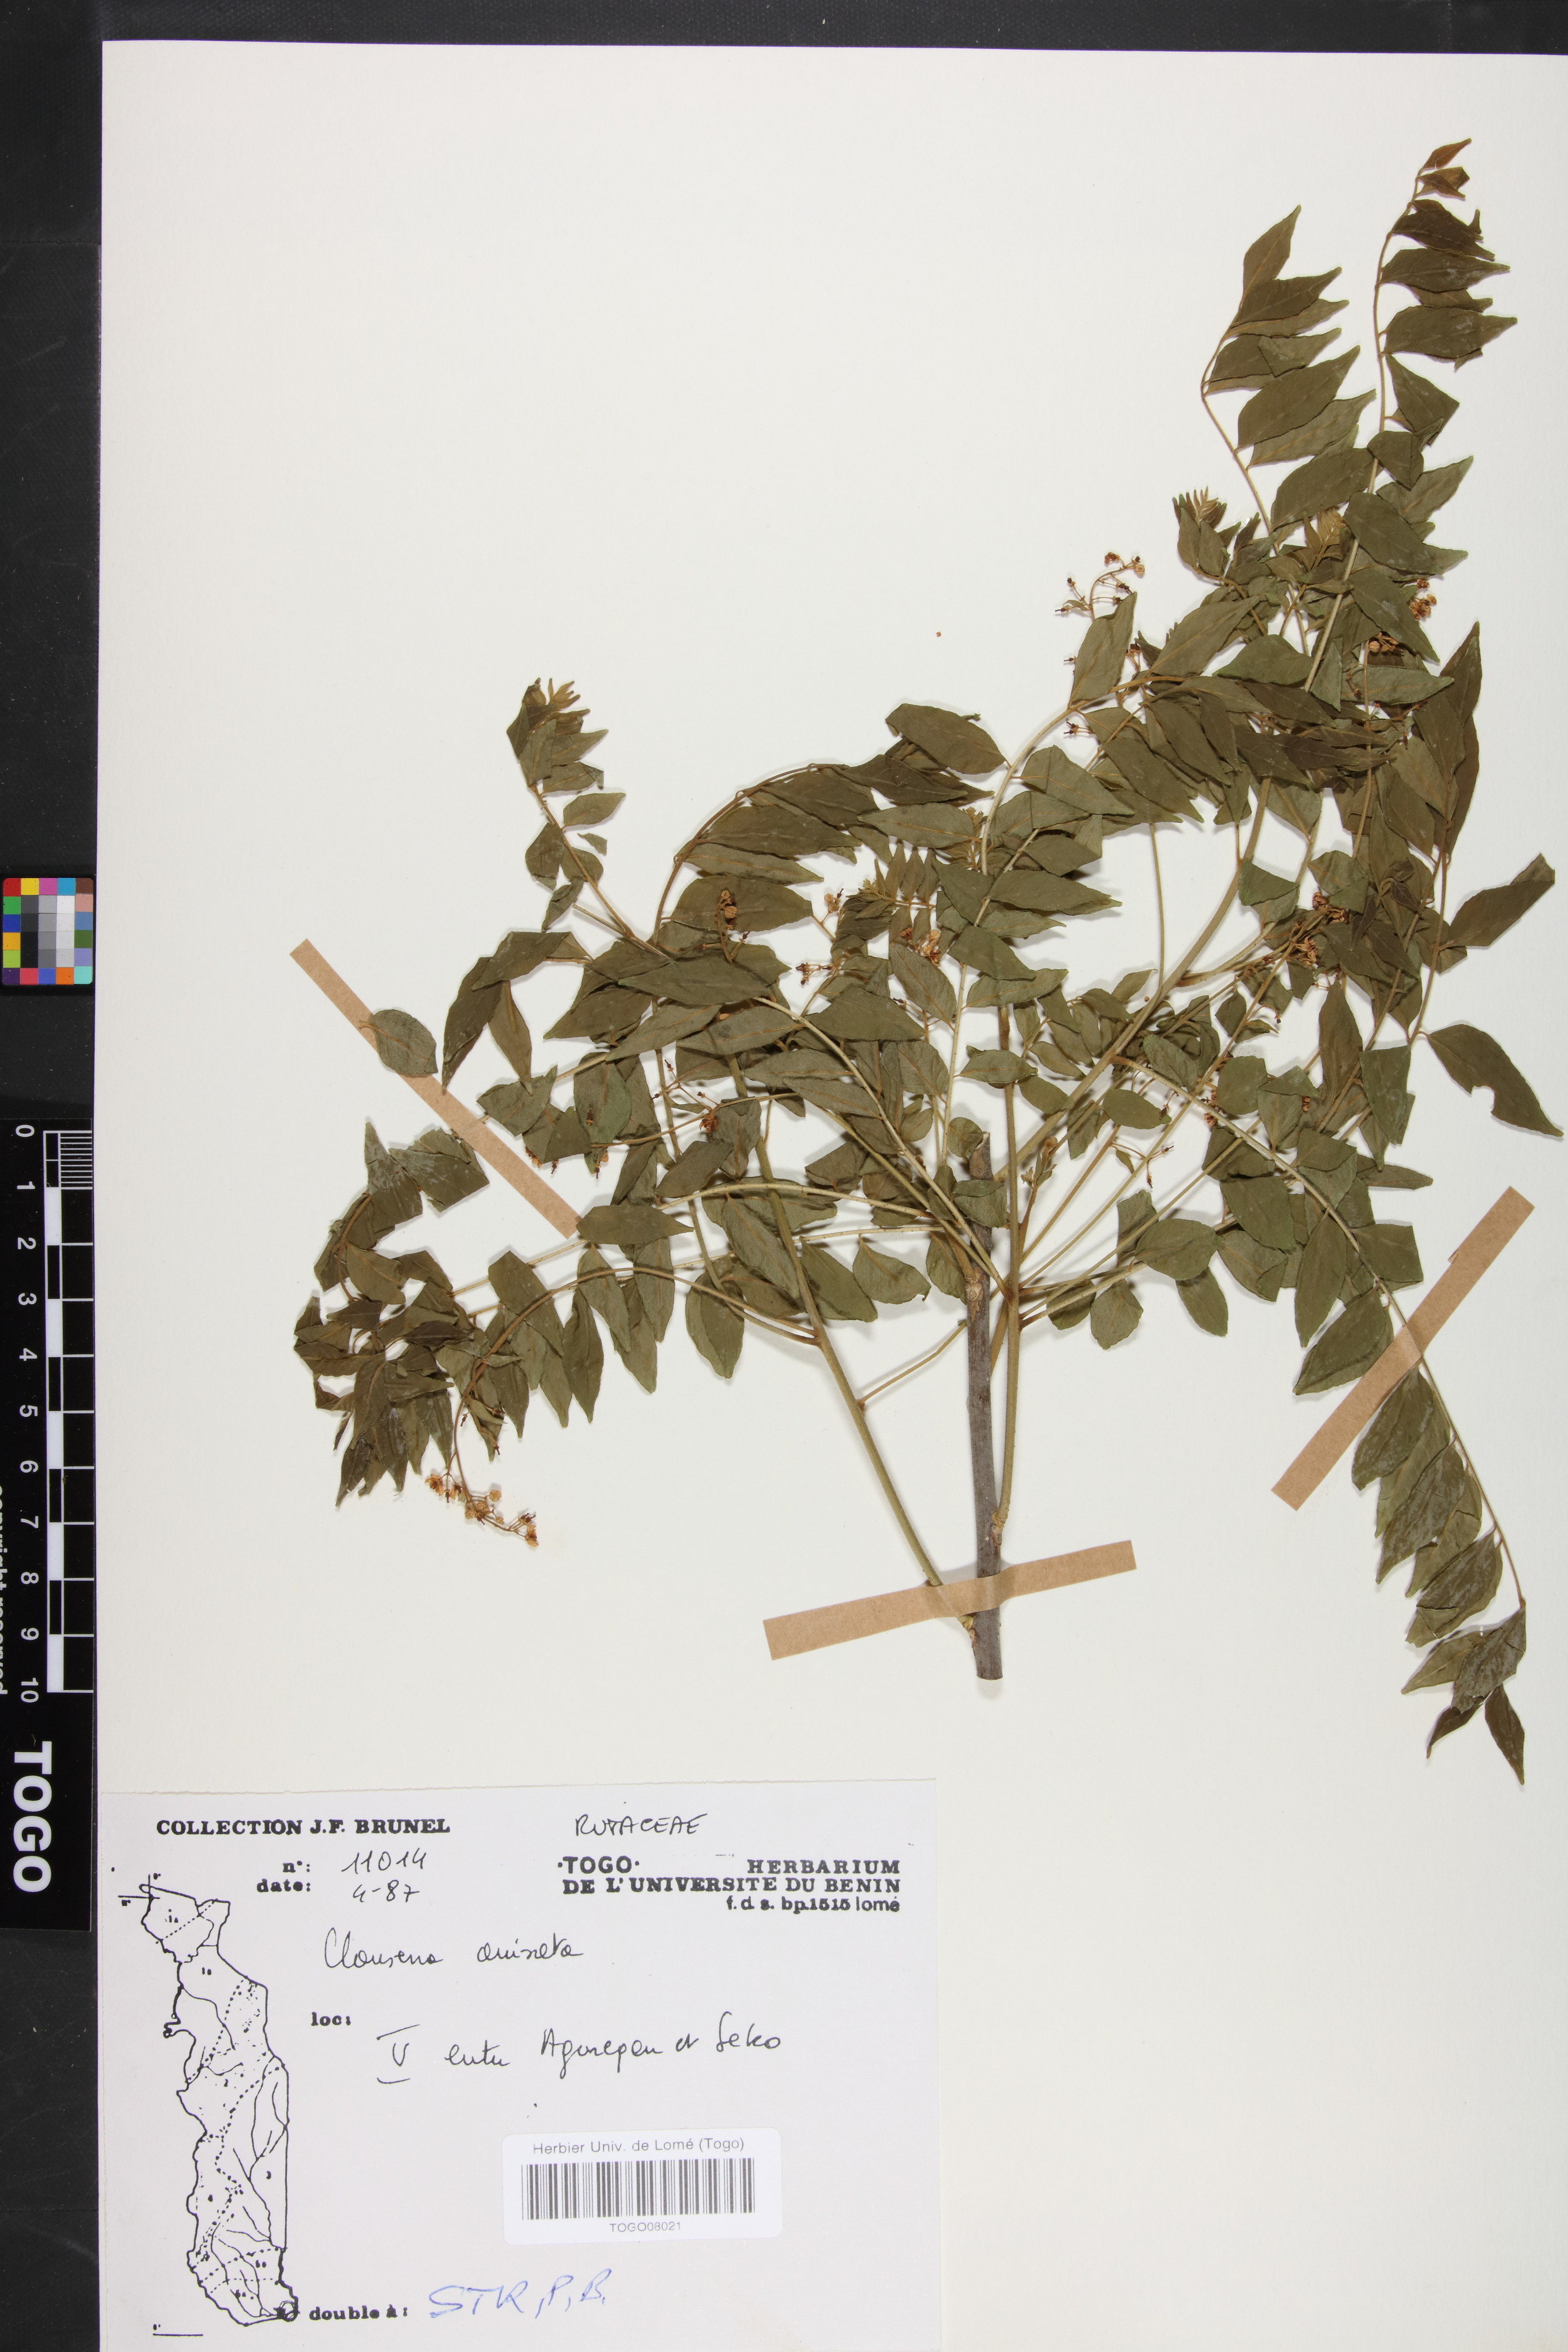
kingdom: Plantae
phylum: Tracheophyta
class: Magnoliopsida
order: Sapindales
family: Rutaceae
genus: Clausena
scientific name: Clausena anisata
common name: Horsewood
